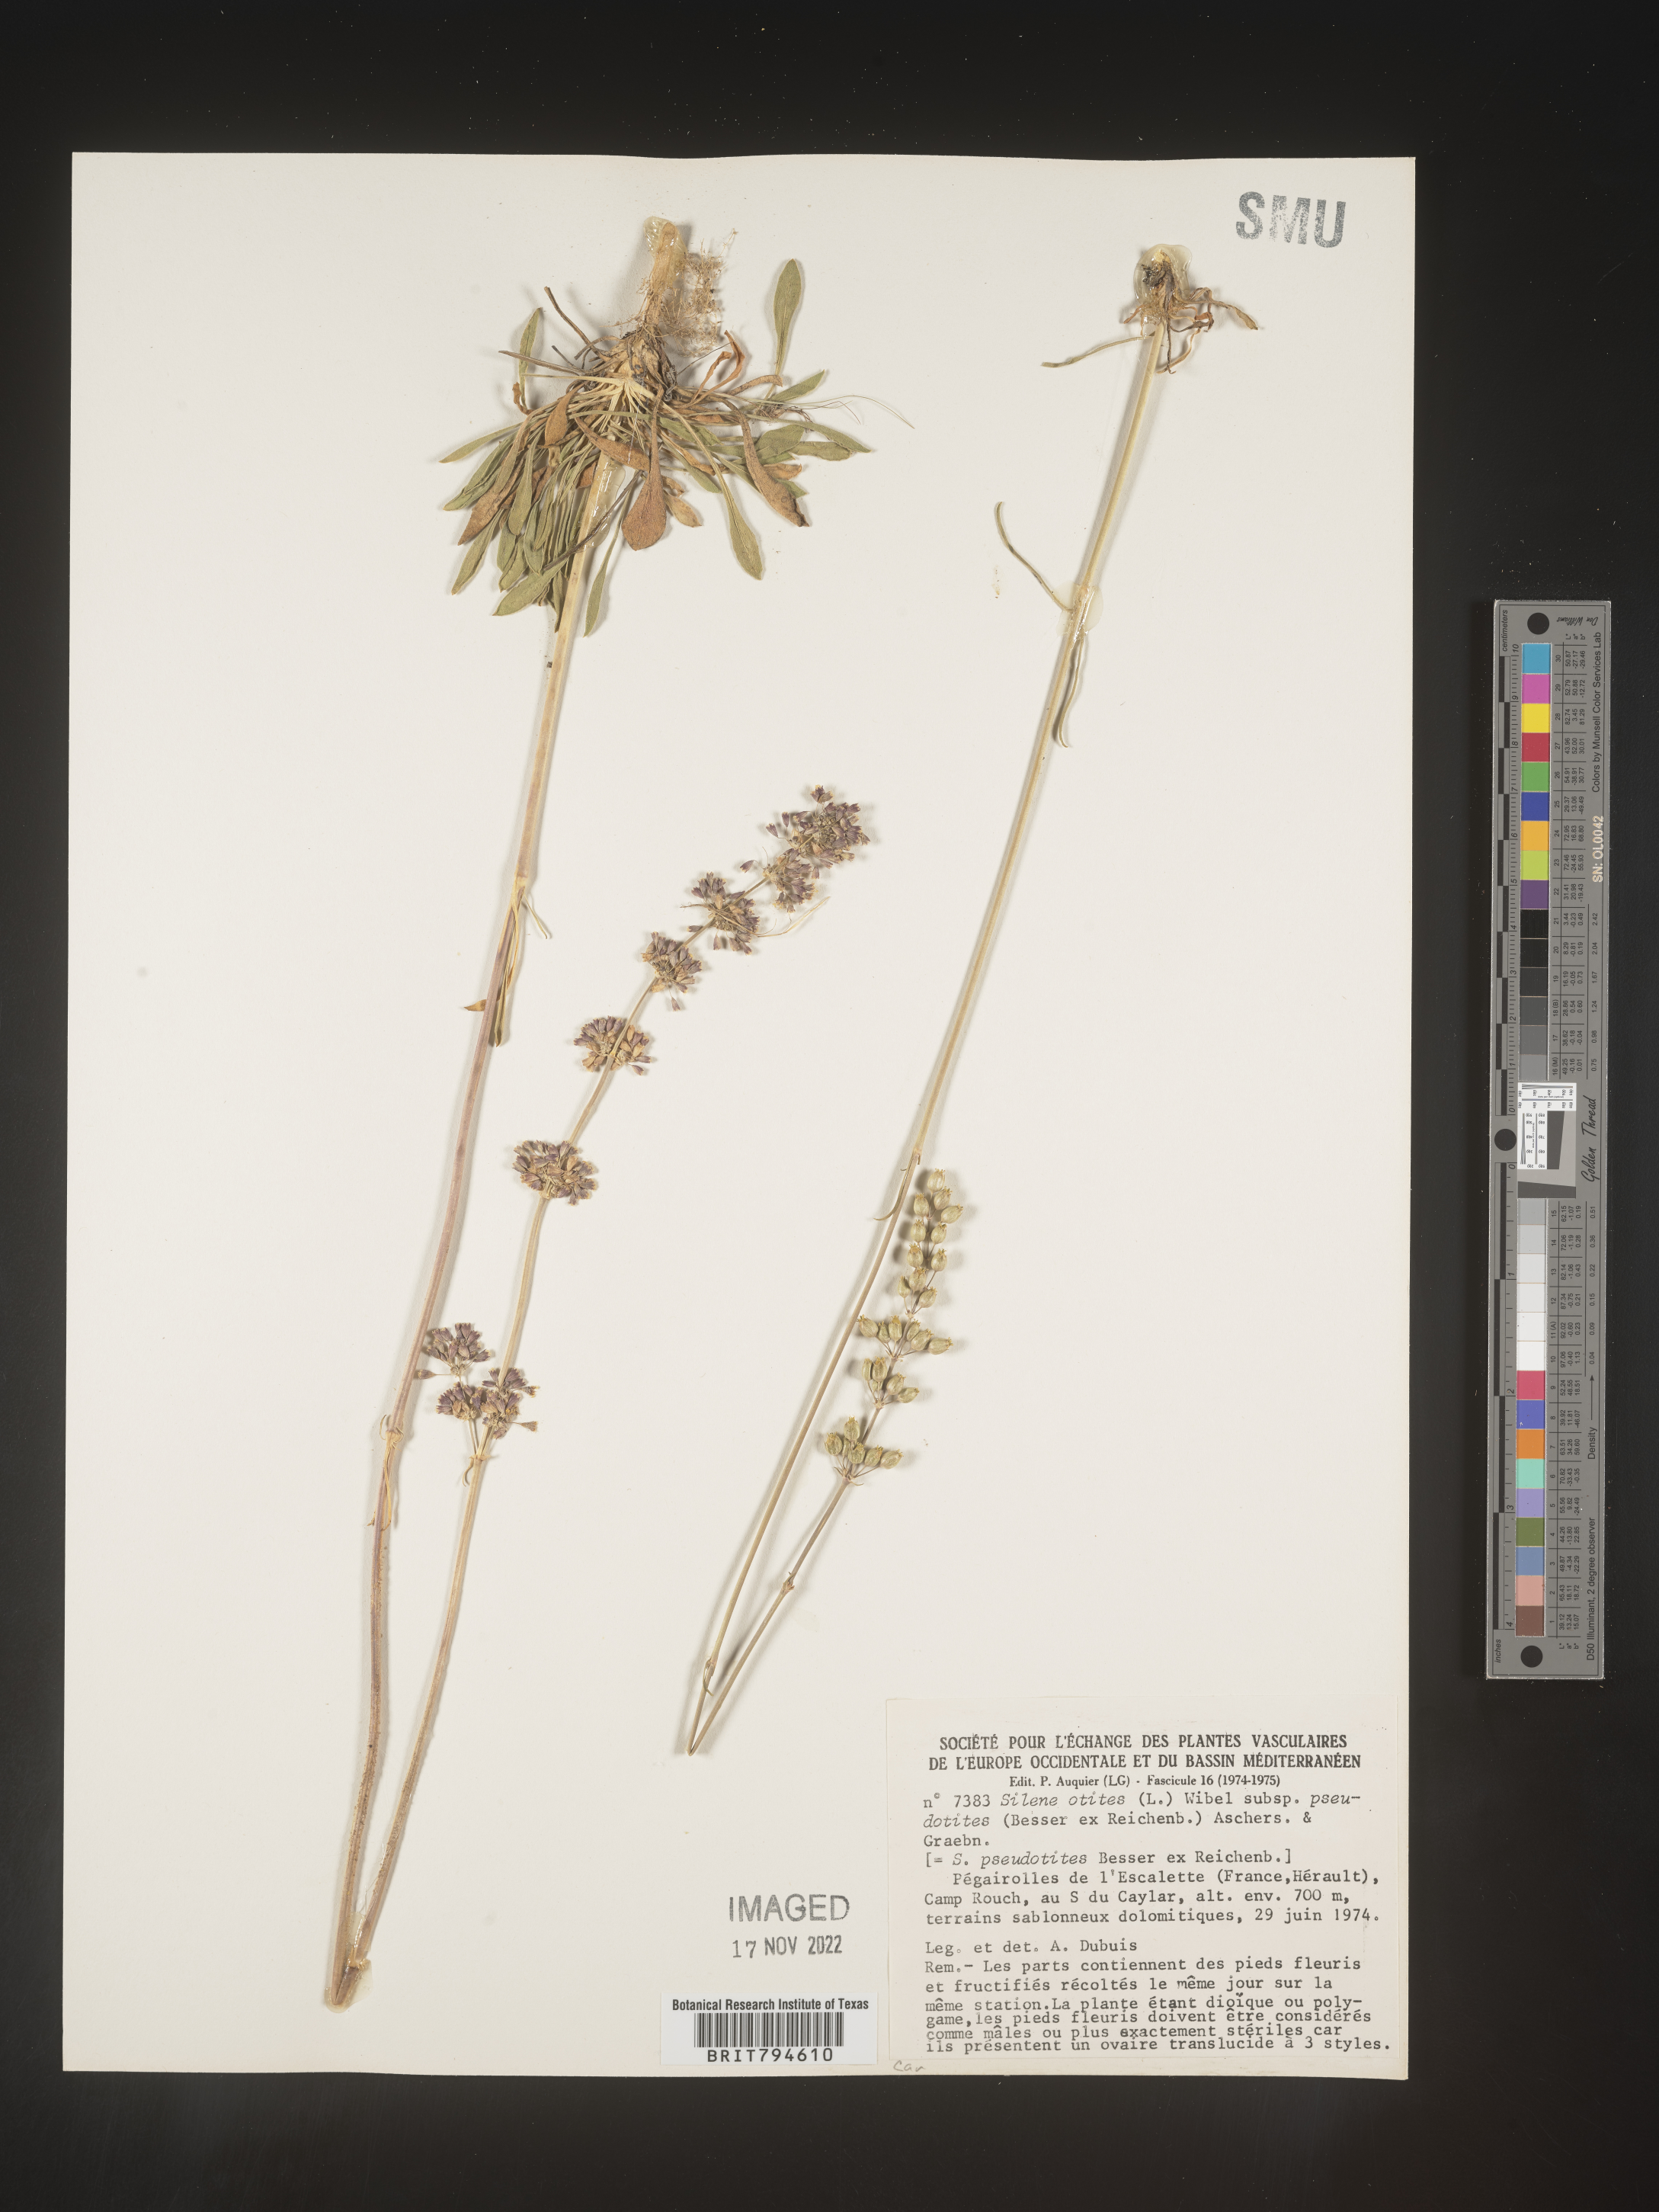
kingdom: Plantae
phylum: Tracheophyta
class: Magnoliopsida
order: Caryophyllales
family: Caryophyllaceae
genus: Silene
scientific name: Silene otites
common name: Spanish catchfly
